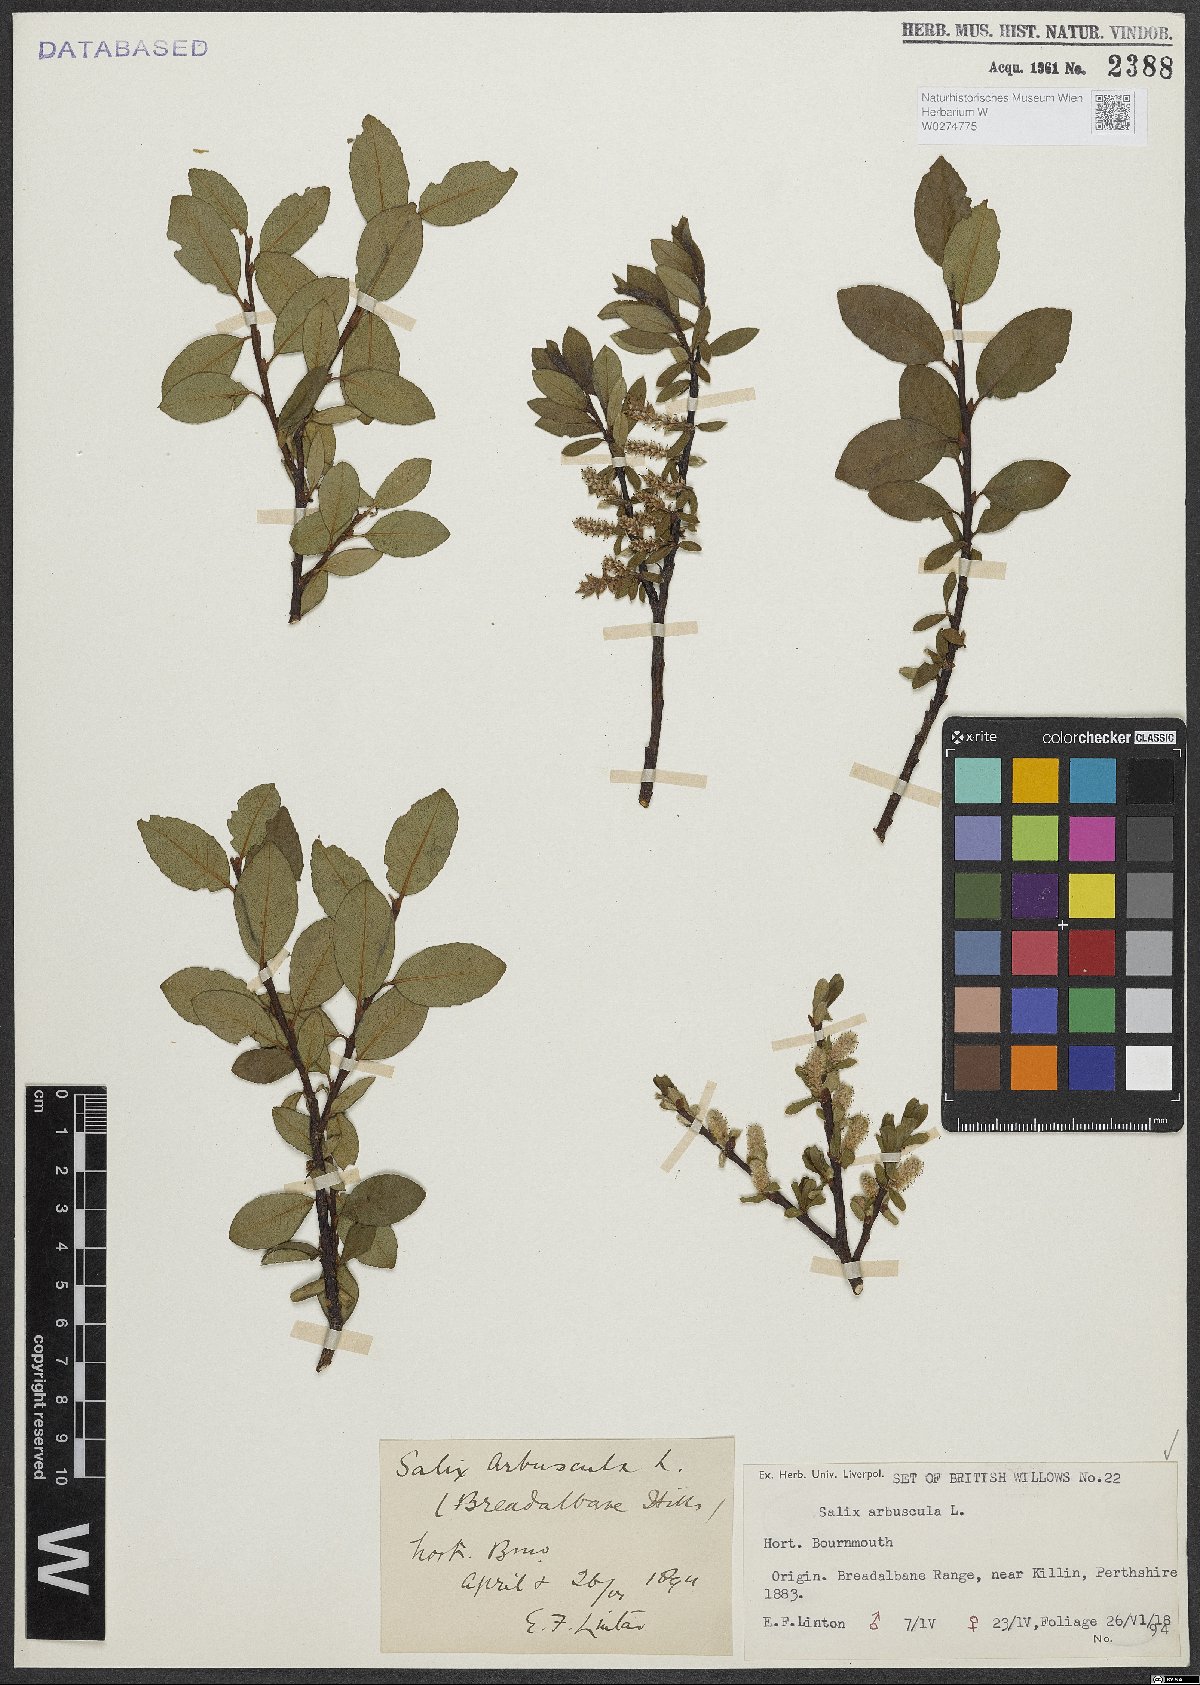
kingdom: Plantae
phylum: Tracheophyta
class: Magnoliopsida
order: Malpighiales
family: Salicaceae
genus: Salix
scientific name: Salix arbuscula
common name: Mountain willow
